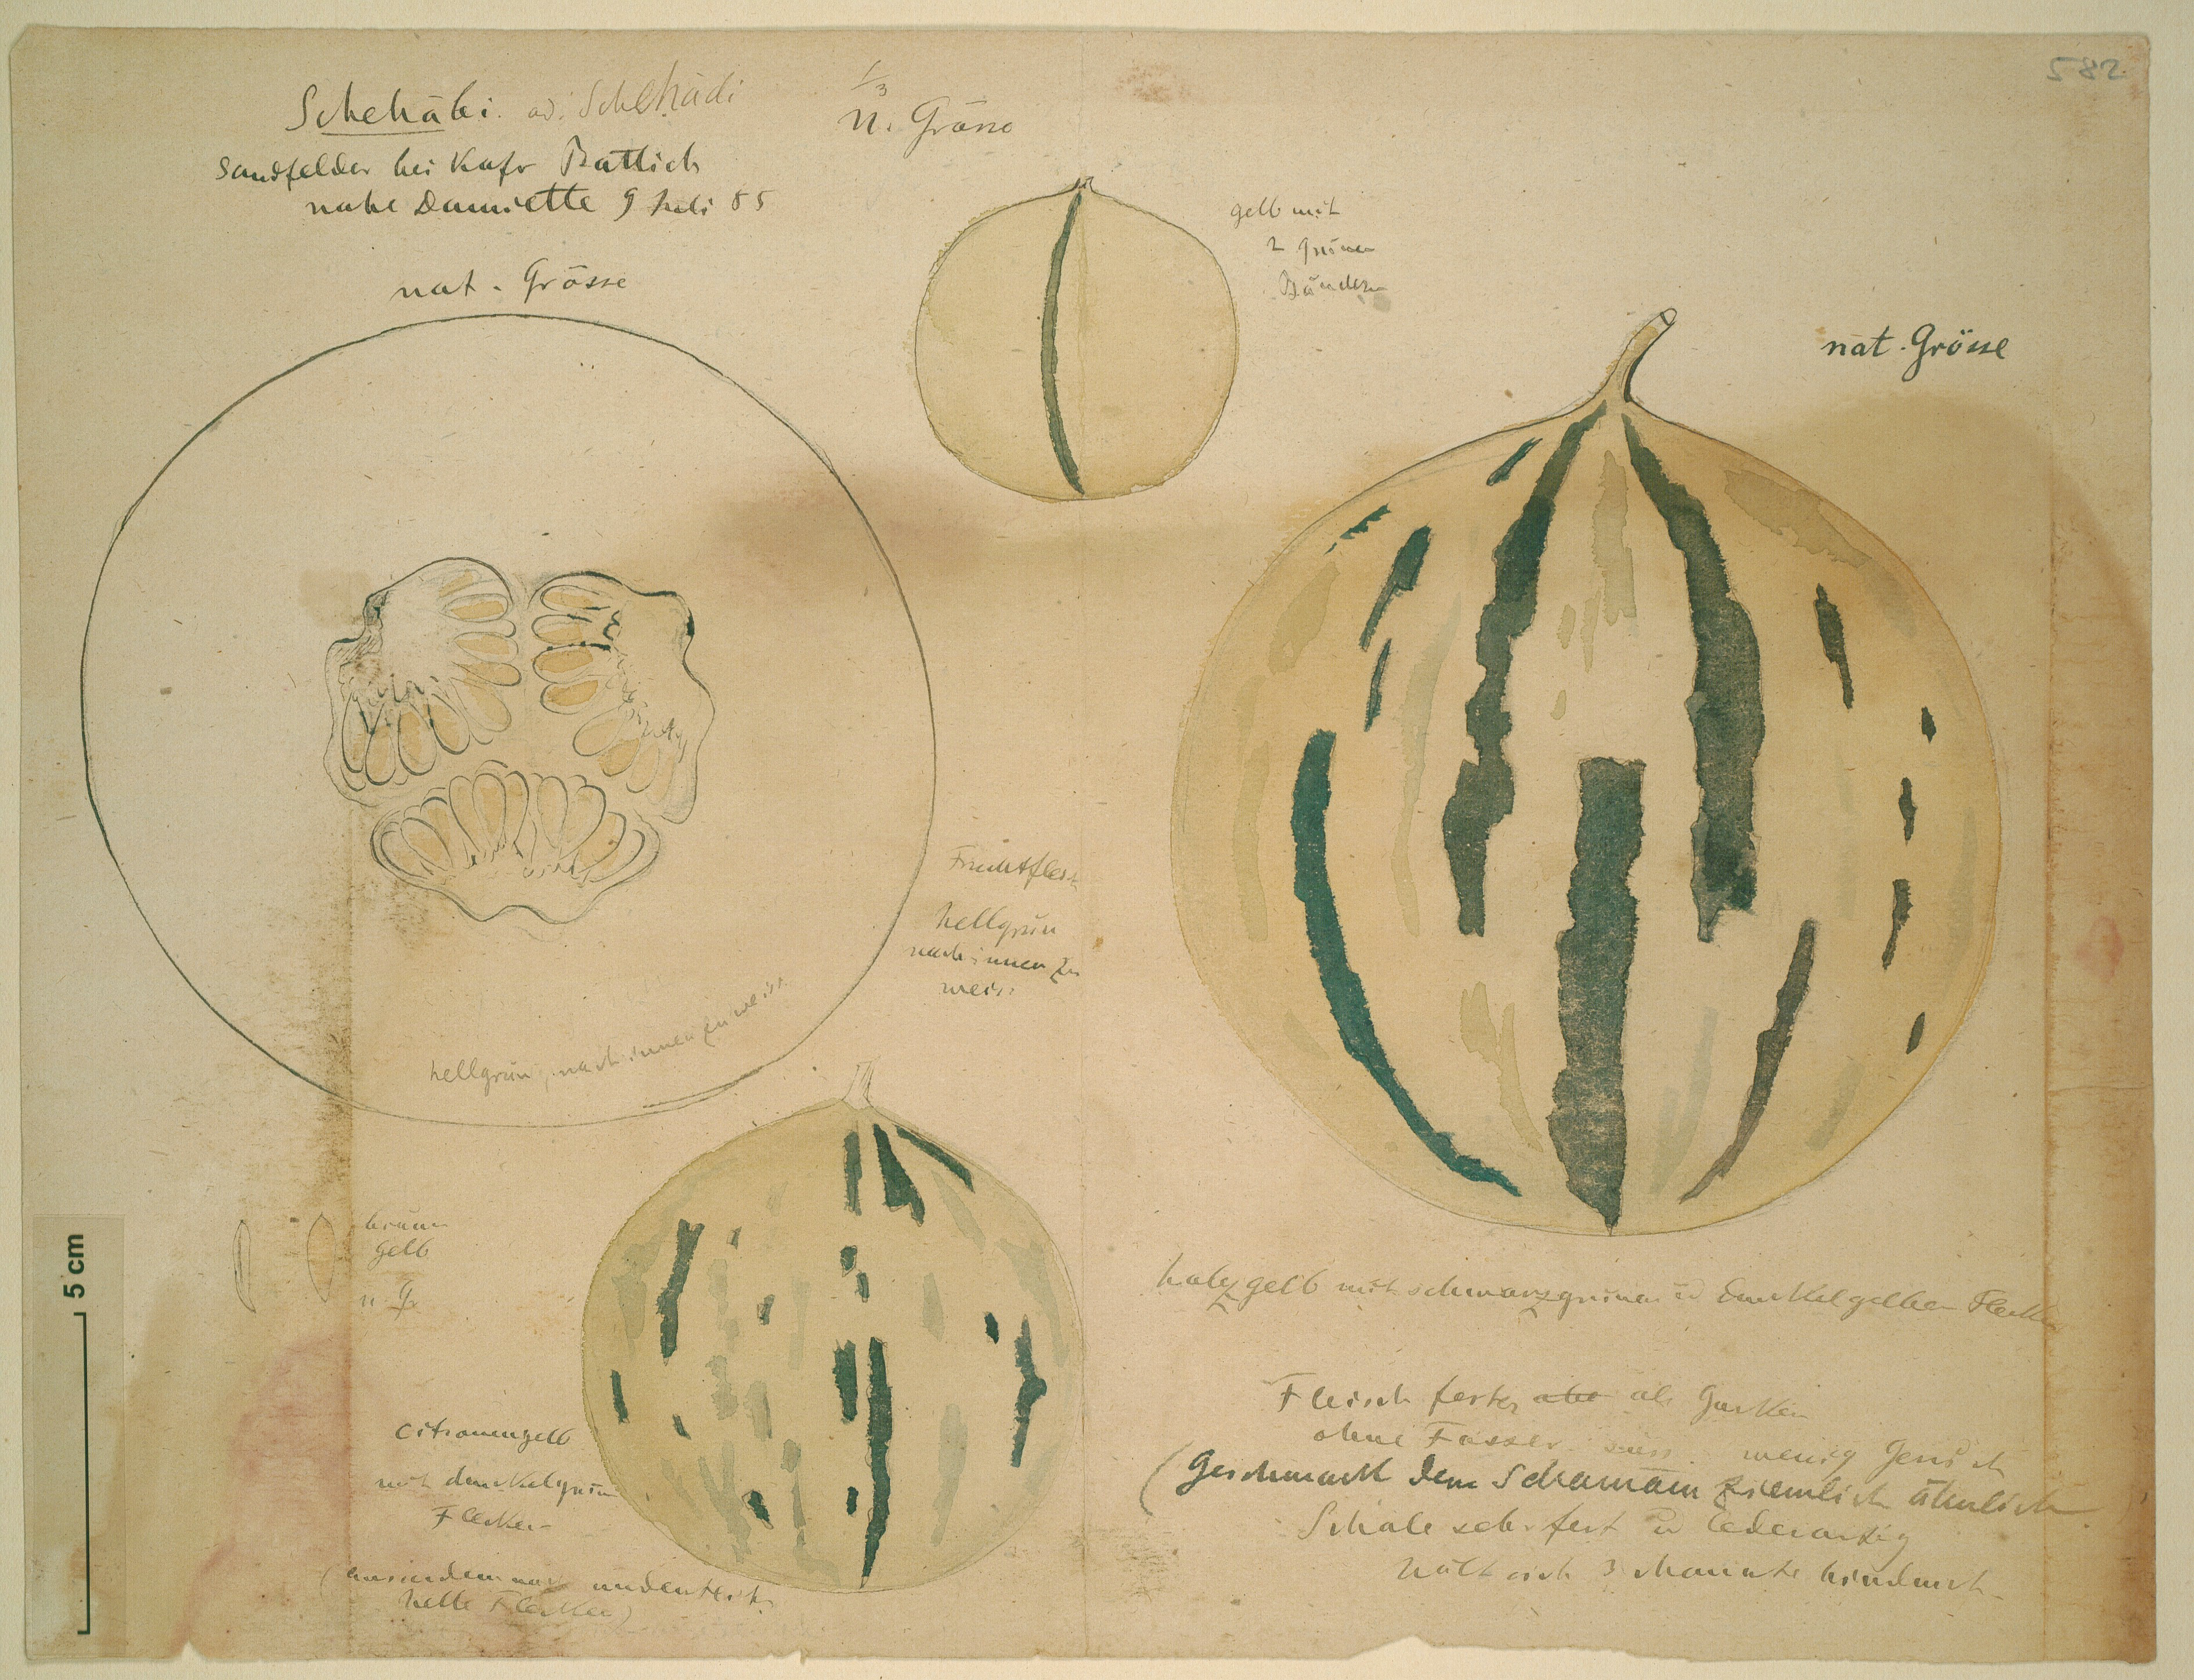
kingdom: Plantae
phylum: Tracheophyta
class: Magnoliopsida
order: Cucurbitales
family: Cucurbitaceae
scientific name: Cucurbitaceae
